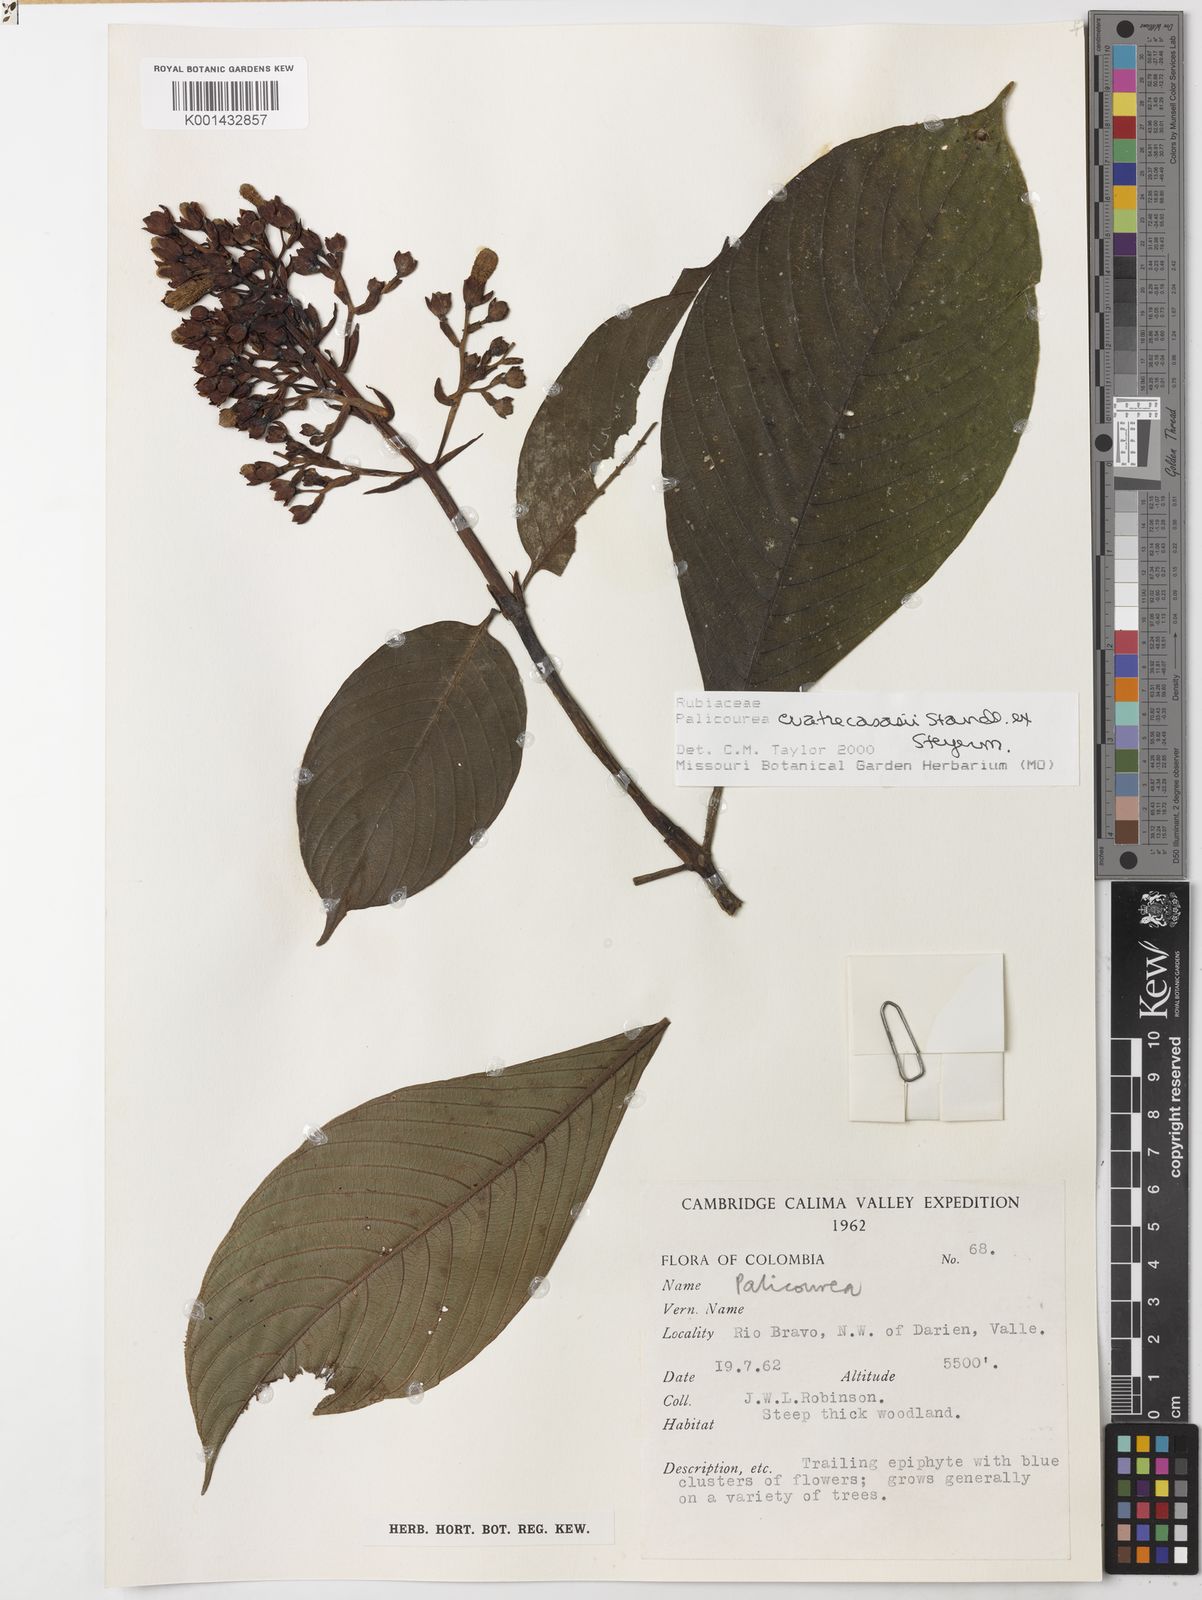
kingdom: Plantae
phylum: Tracheophyta
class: Magnoliopsida
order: Gentianales
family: Rubiaceae
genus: Palicourea
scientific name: Palicourea cuatrecasasii
